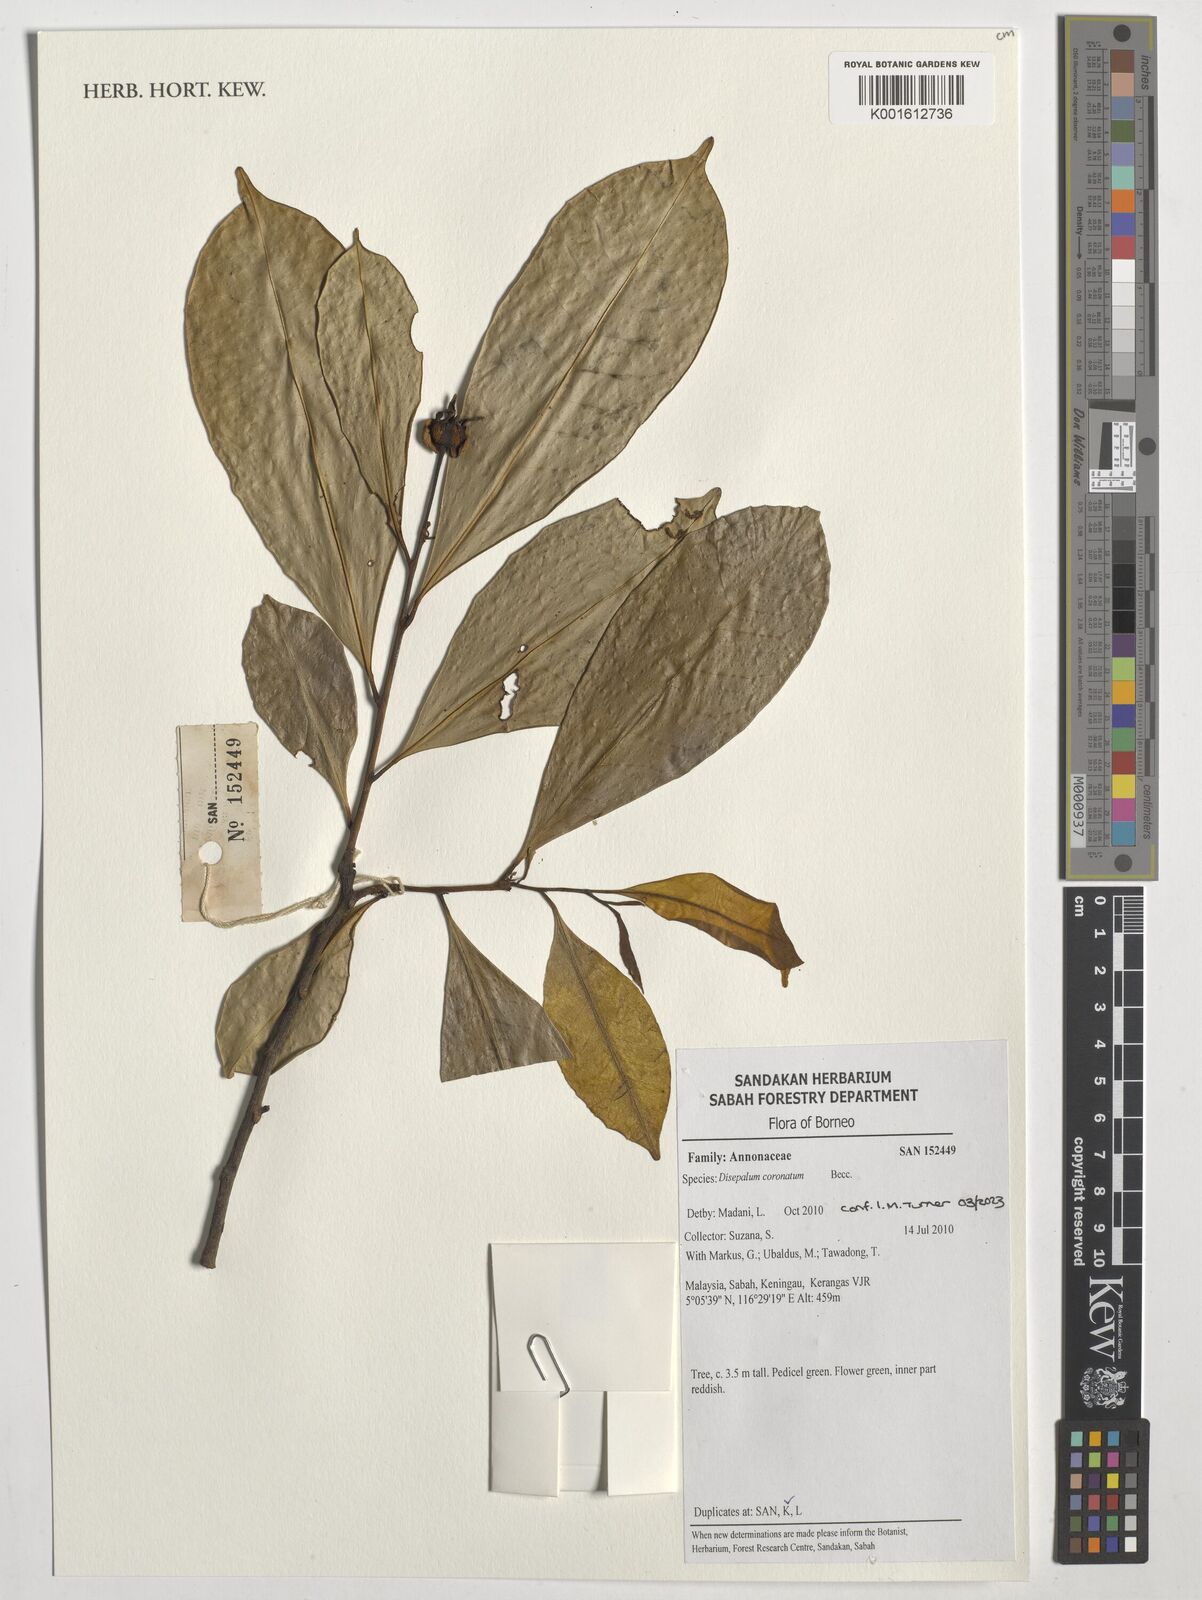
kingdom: Plantae
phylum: Tracheophyta
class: Magnoliopsida
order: Magnoliales
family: Annonaceae
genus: Disepalum
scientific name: Disepalum coronatum
